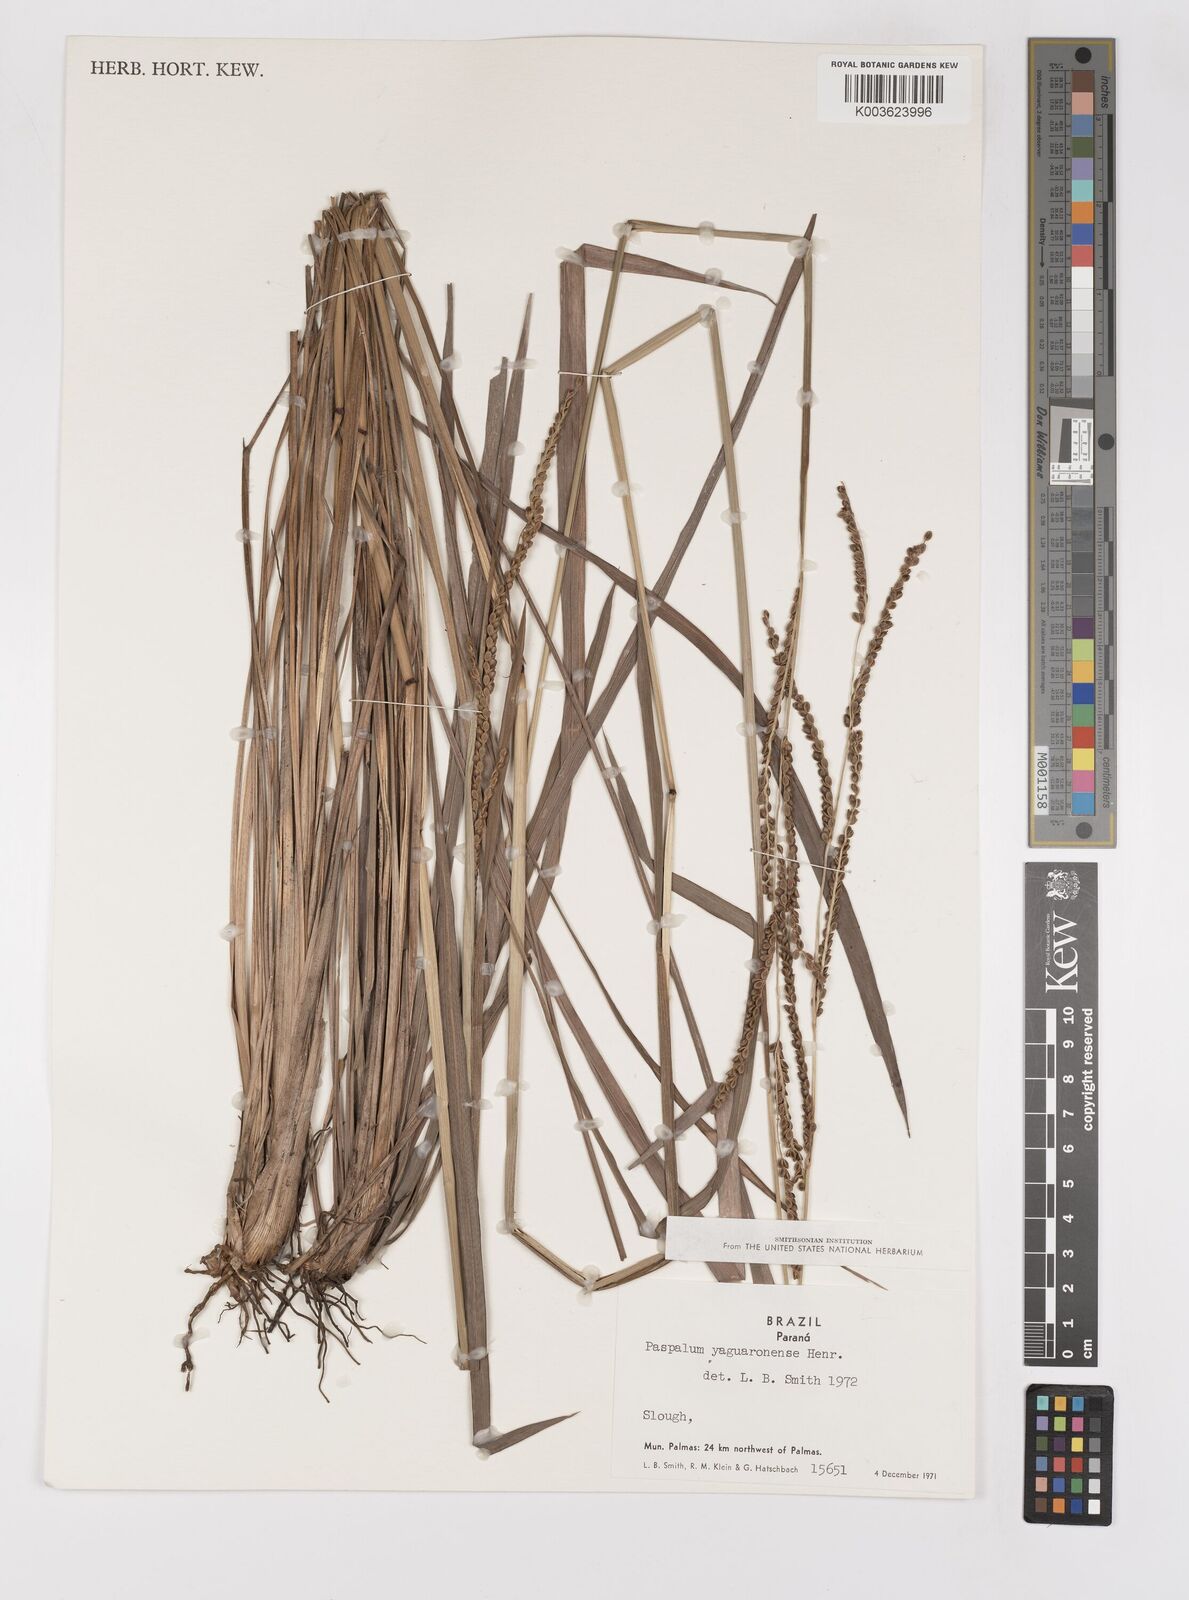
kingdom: Plantae
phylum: Tracheophyta
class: Liliopsida
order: Poales
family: Poaceae
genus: Paspalum
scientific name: Paspalum glaucescens
